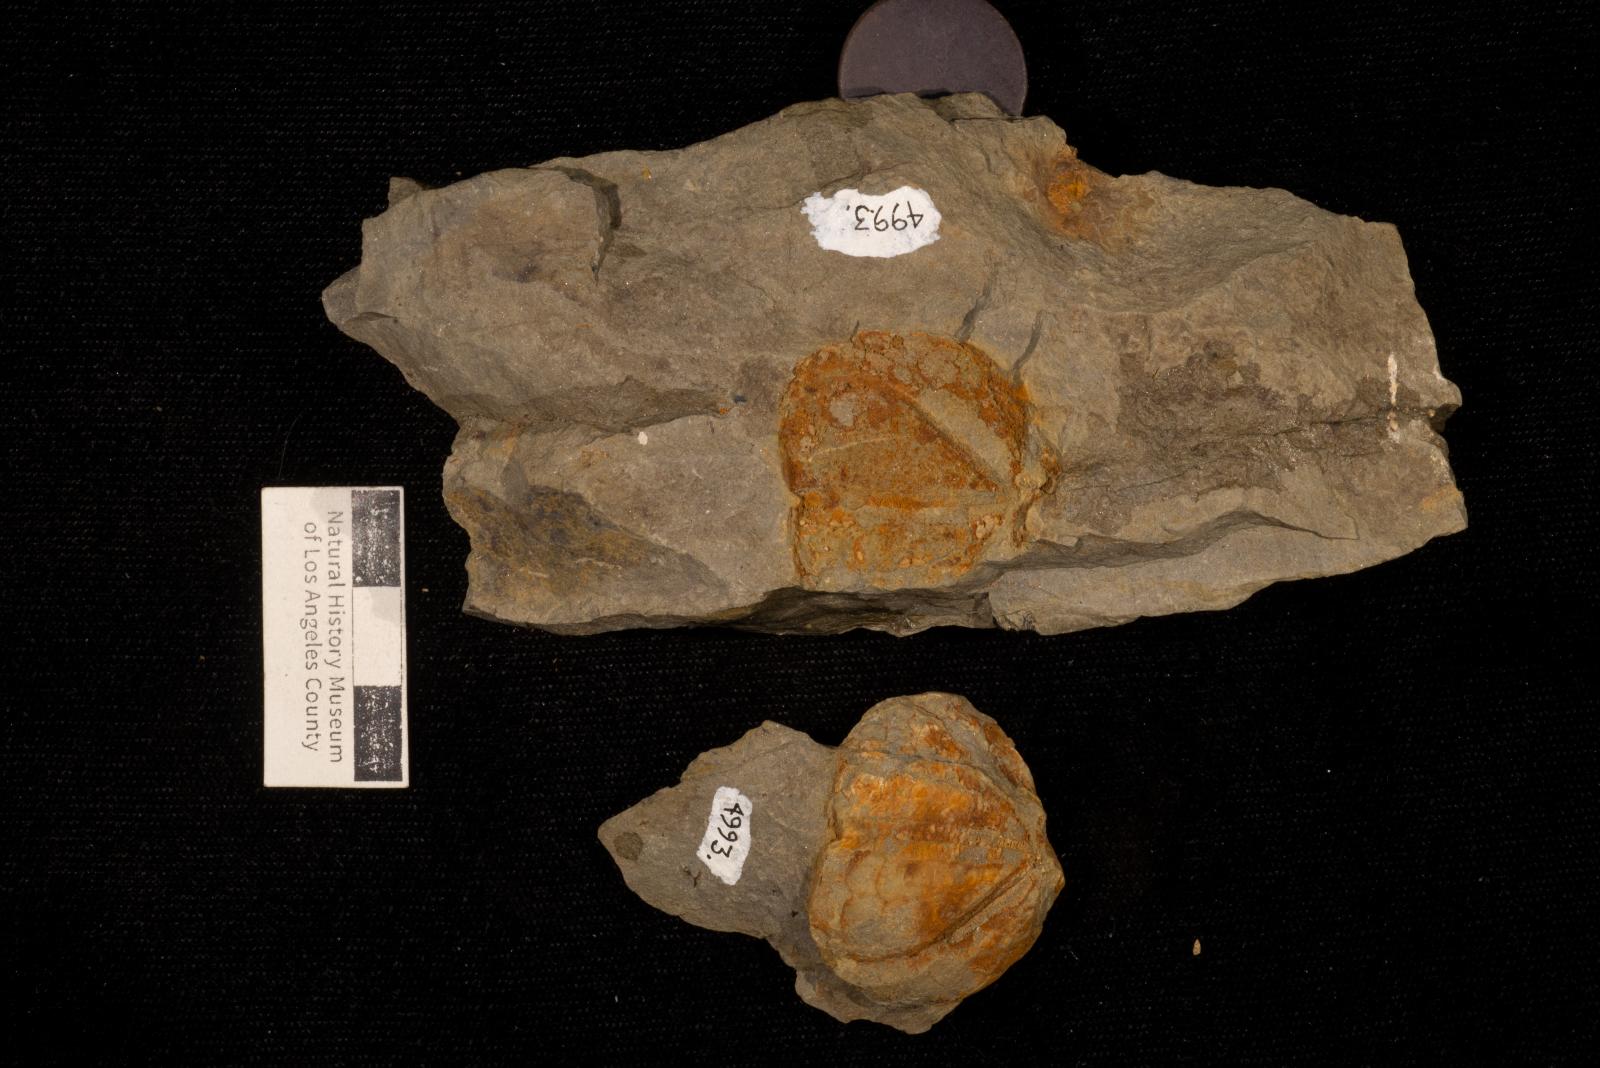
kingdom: Animalia
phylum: Echinodermata
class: Echinoidea
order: Spatangoida
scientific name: Spatangoida
